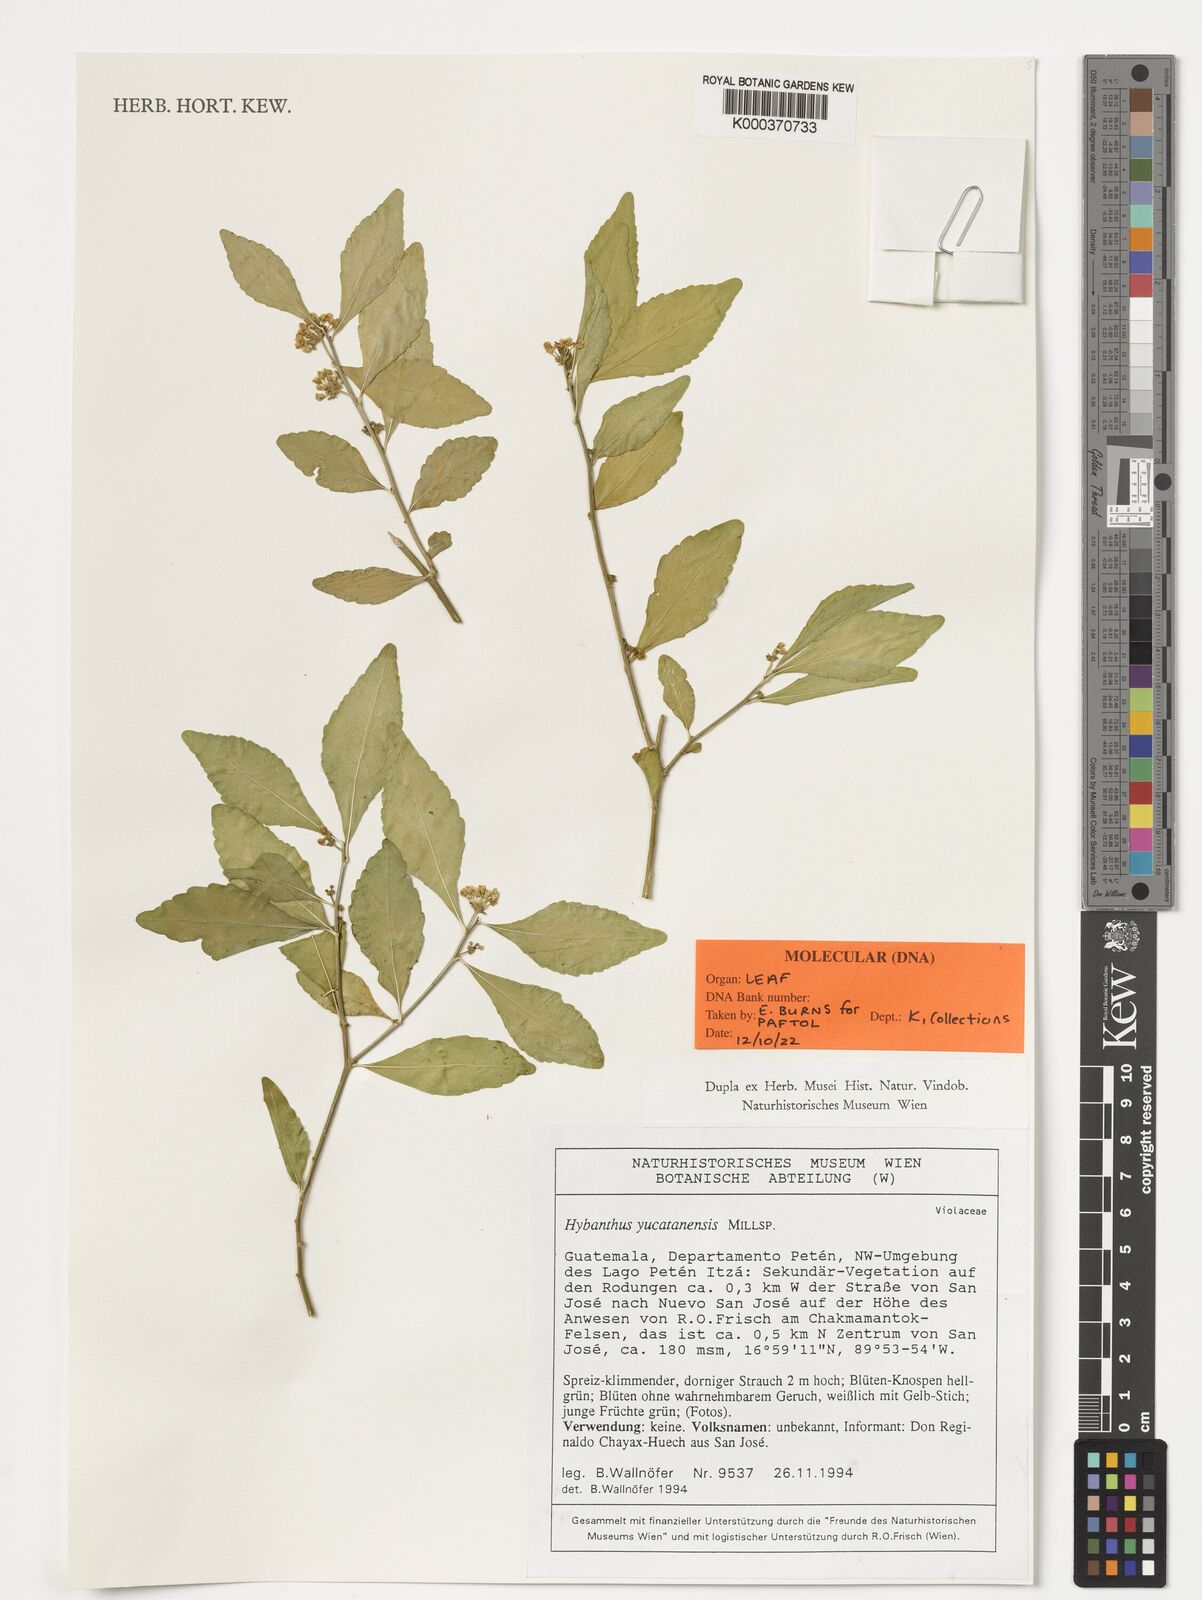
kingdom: Plantae
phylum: Tracheophyta
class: Magnoliopsida
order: Malpighiales
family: Violaceae
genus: Hybanthus
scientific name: Hybanthus yucatanensis
